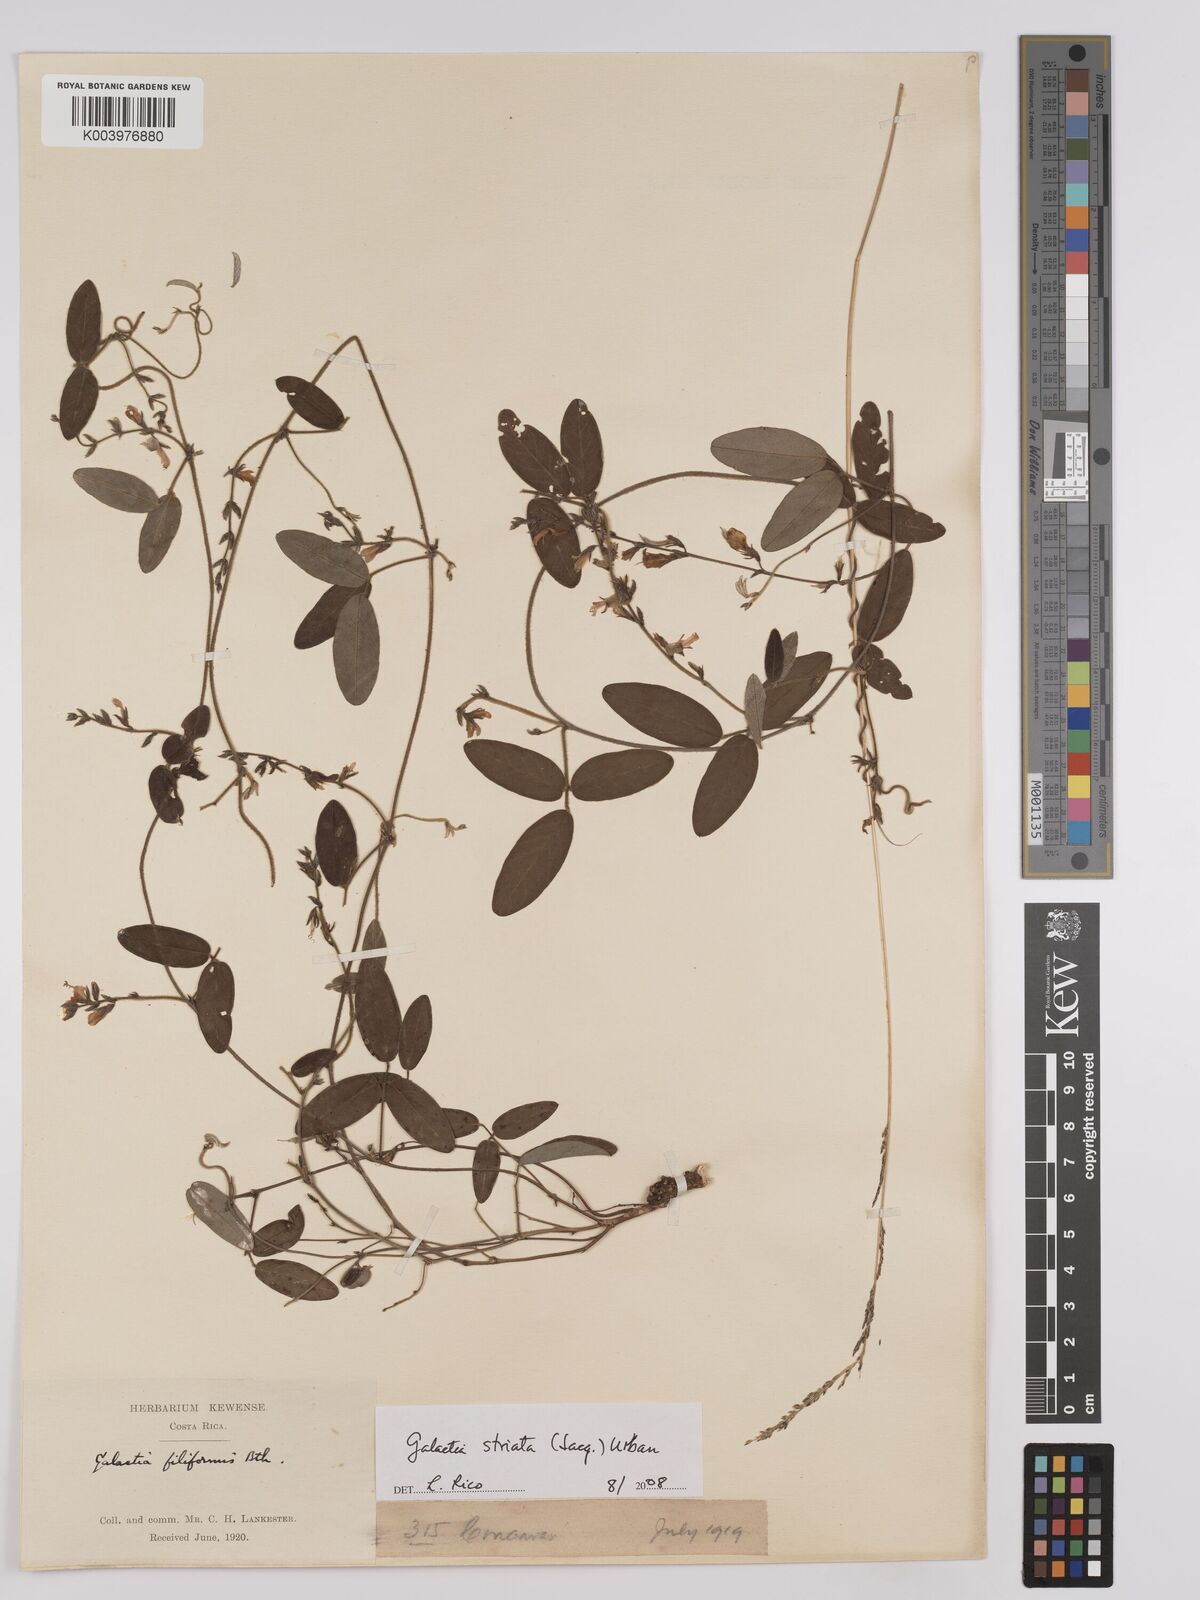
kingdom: Plantae
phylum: Tracheophyta
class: Magnoliopsida
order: Fabales
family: Fabaceae
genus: Galactia
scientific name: Galactia striata
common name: Florida hammock milkpea
